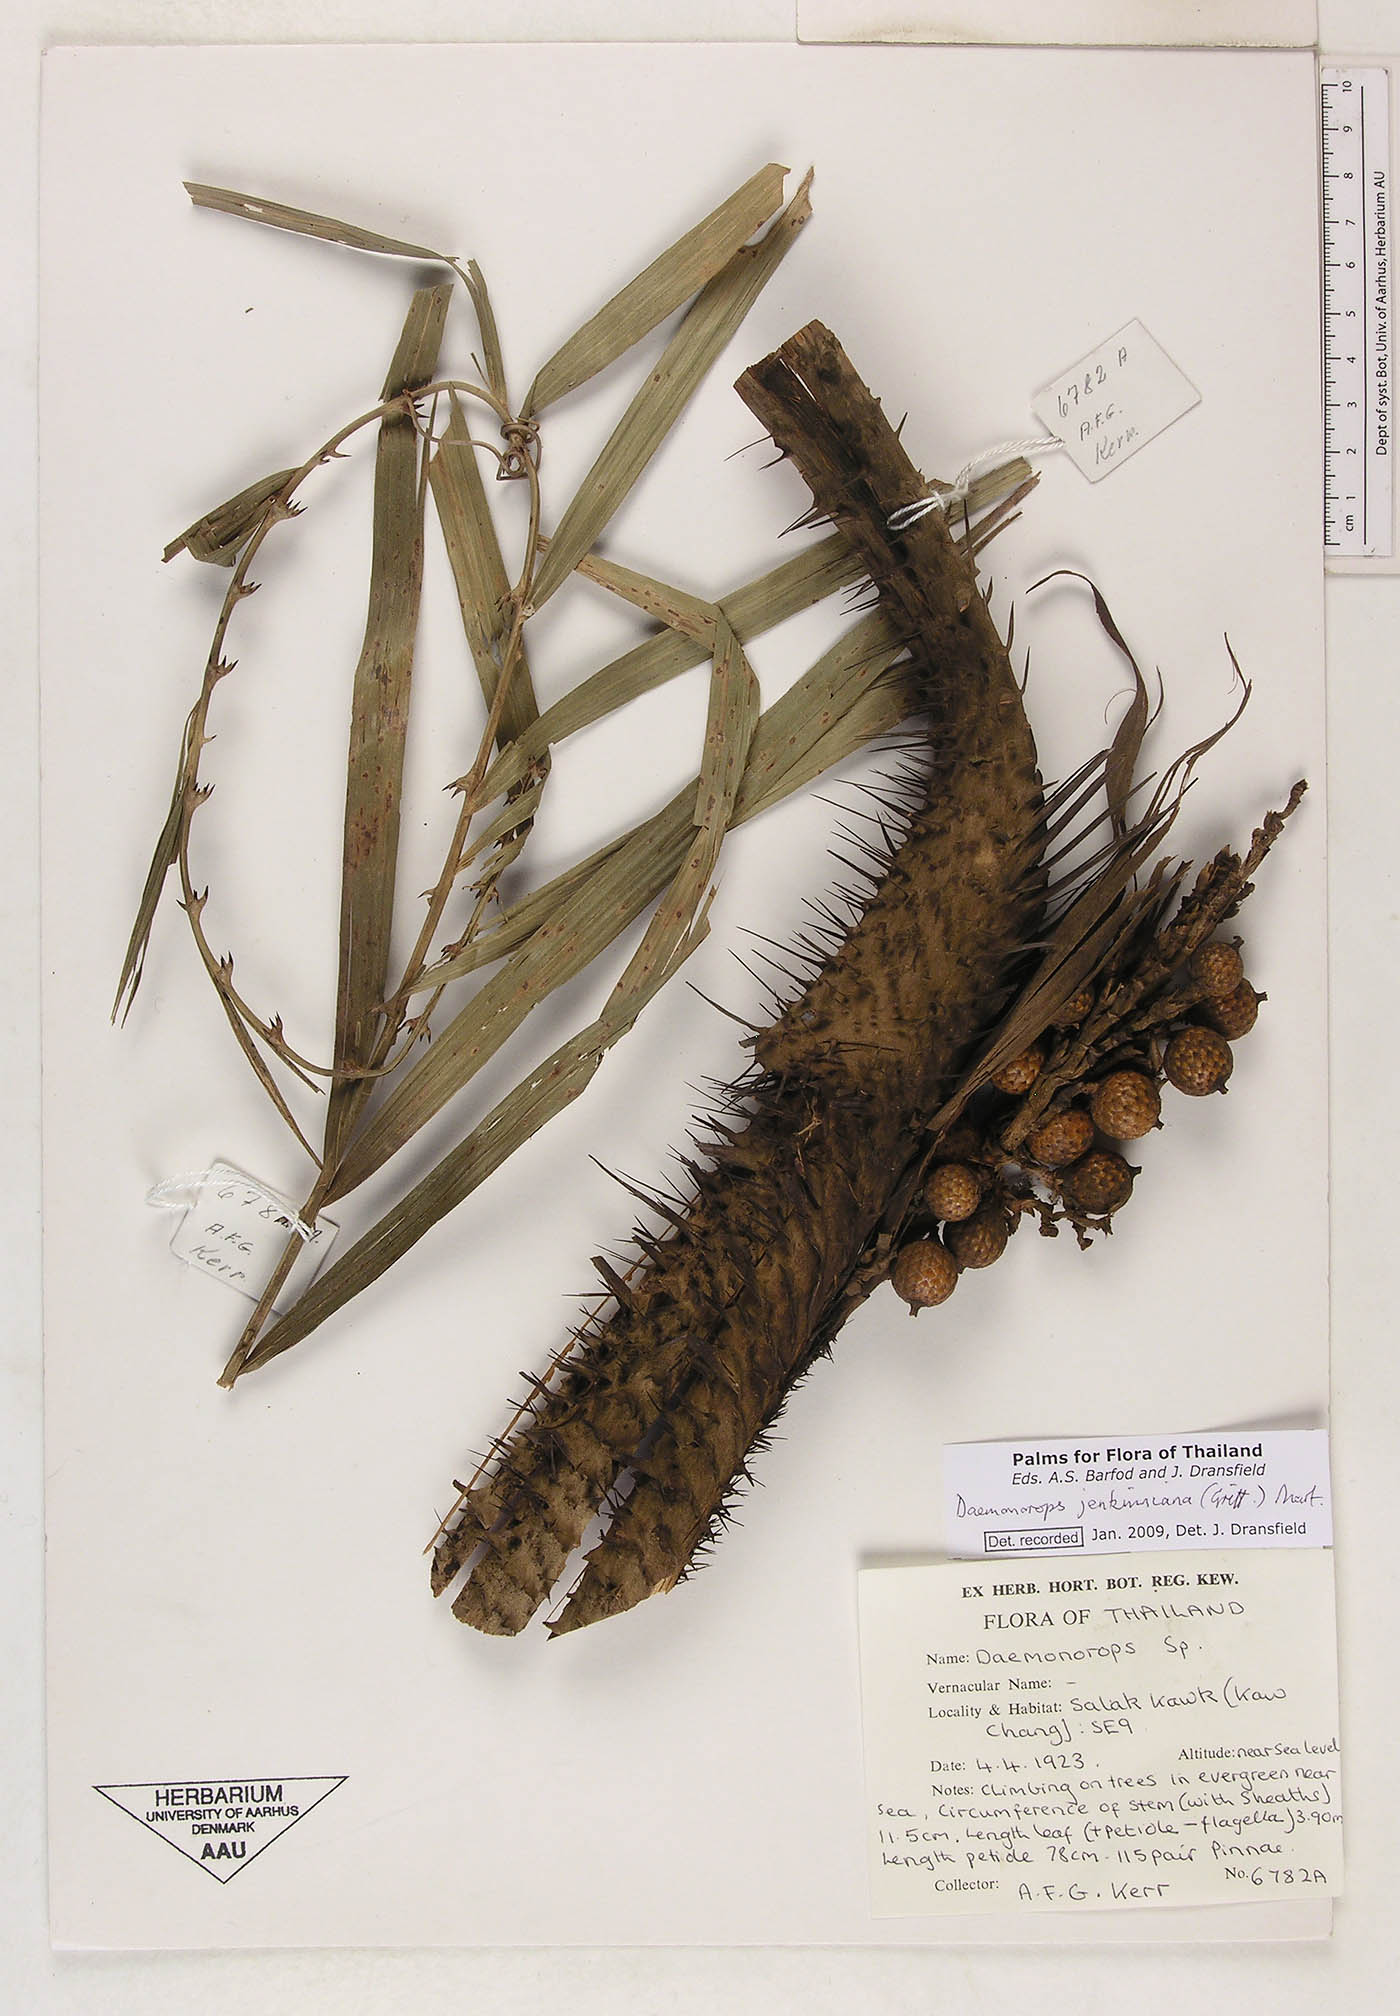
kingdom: Plantae
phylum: Tracheophyta
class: Liliopsida
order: Arecales
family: Arecaceae
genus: Calamus
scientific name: Calamus melanochaetes
